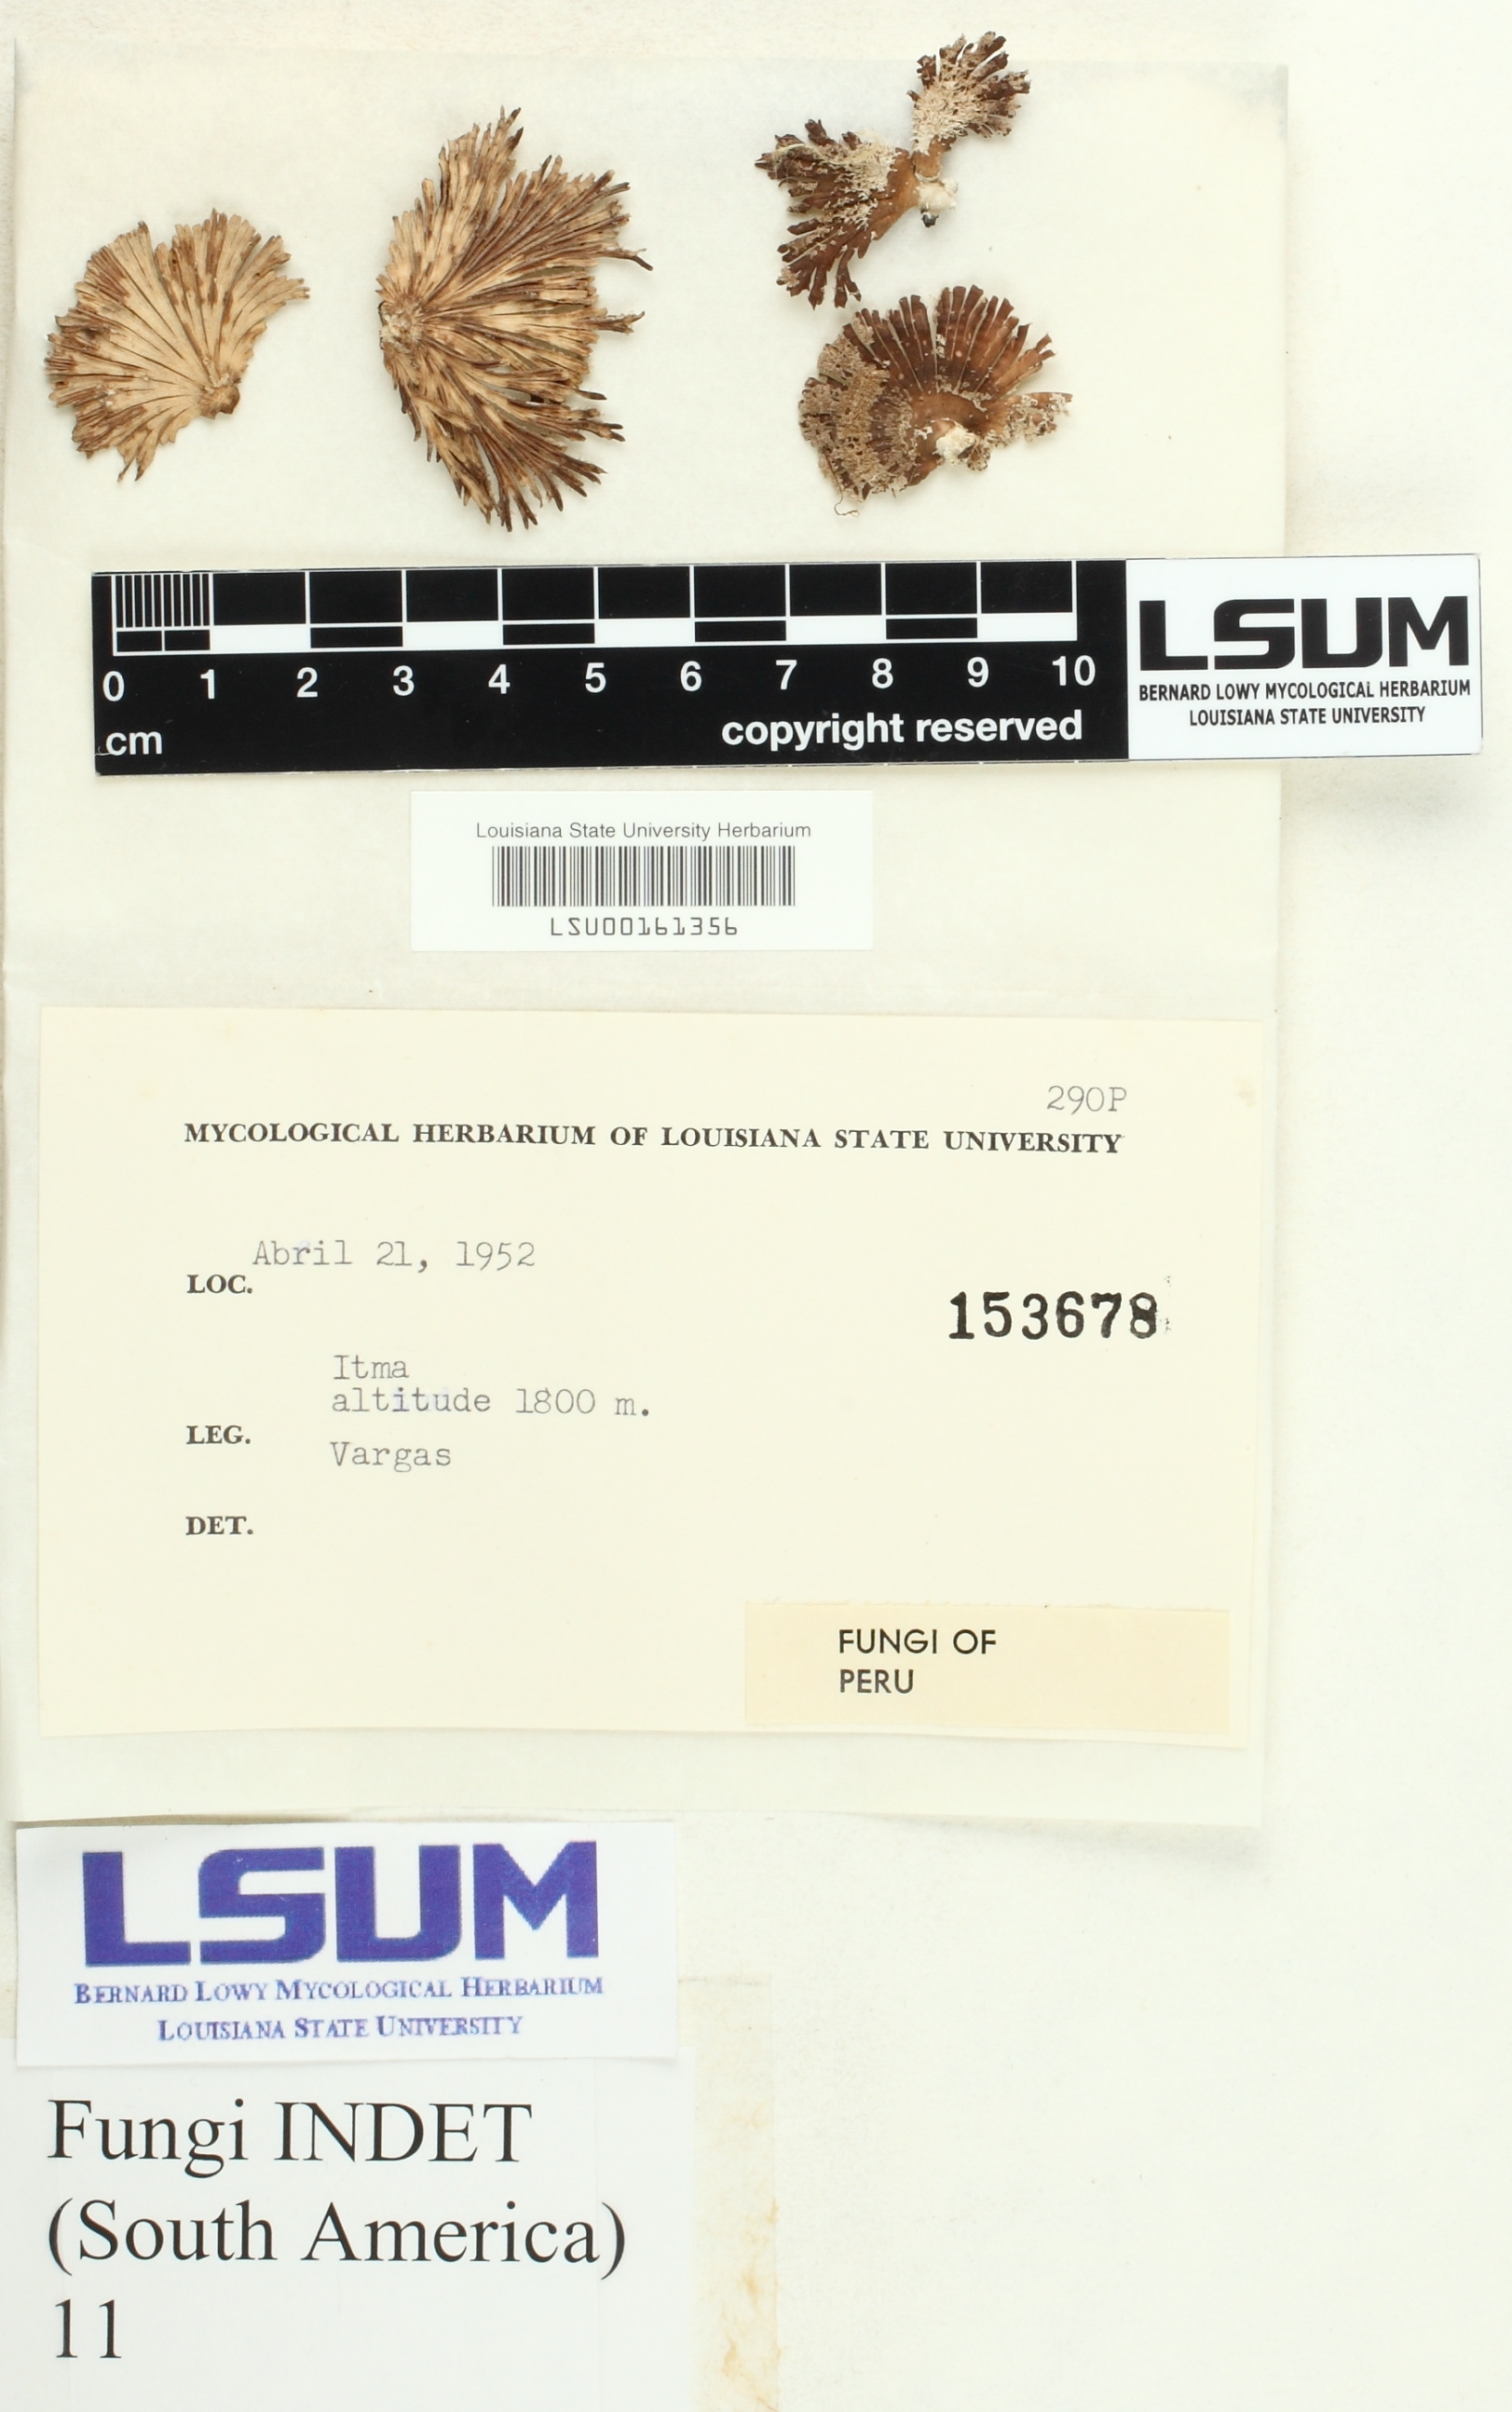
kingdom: Fungi
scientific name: Fungi
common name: Fungi
